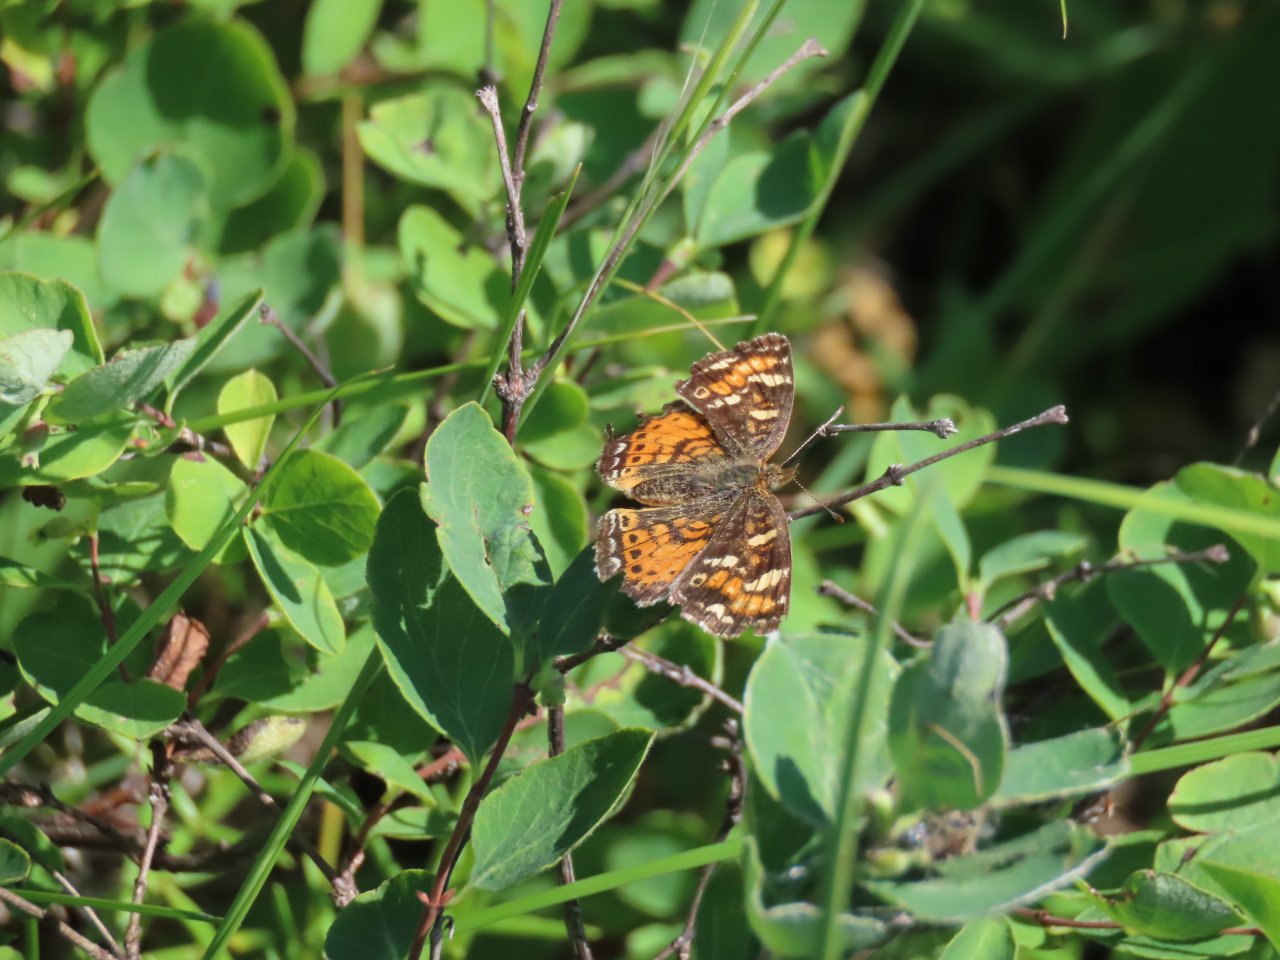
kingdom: Animalia
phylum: Arthropoda
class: Insecta
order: Lepidoptera
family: Nymphalidae
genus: Phyciodes
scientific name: Phyciodes batesii
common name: Tawny Crescent
